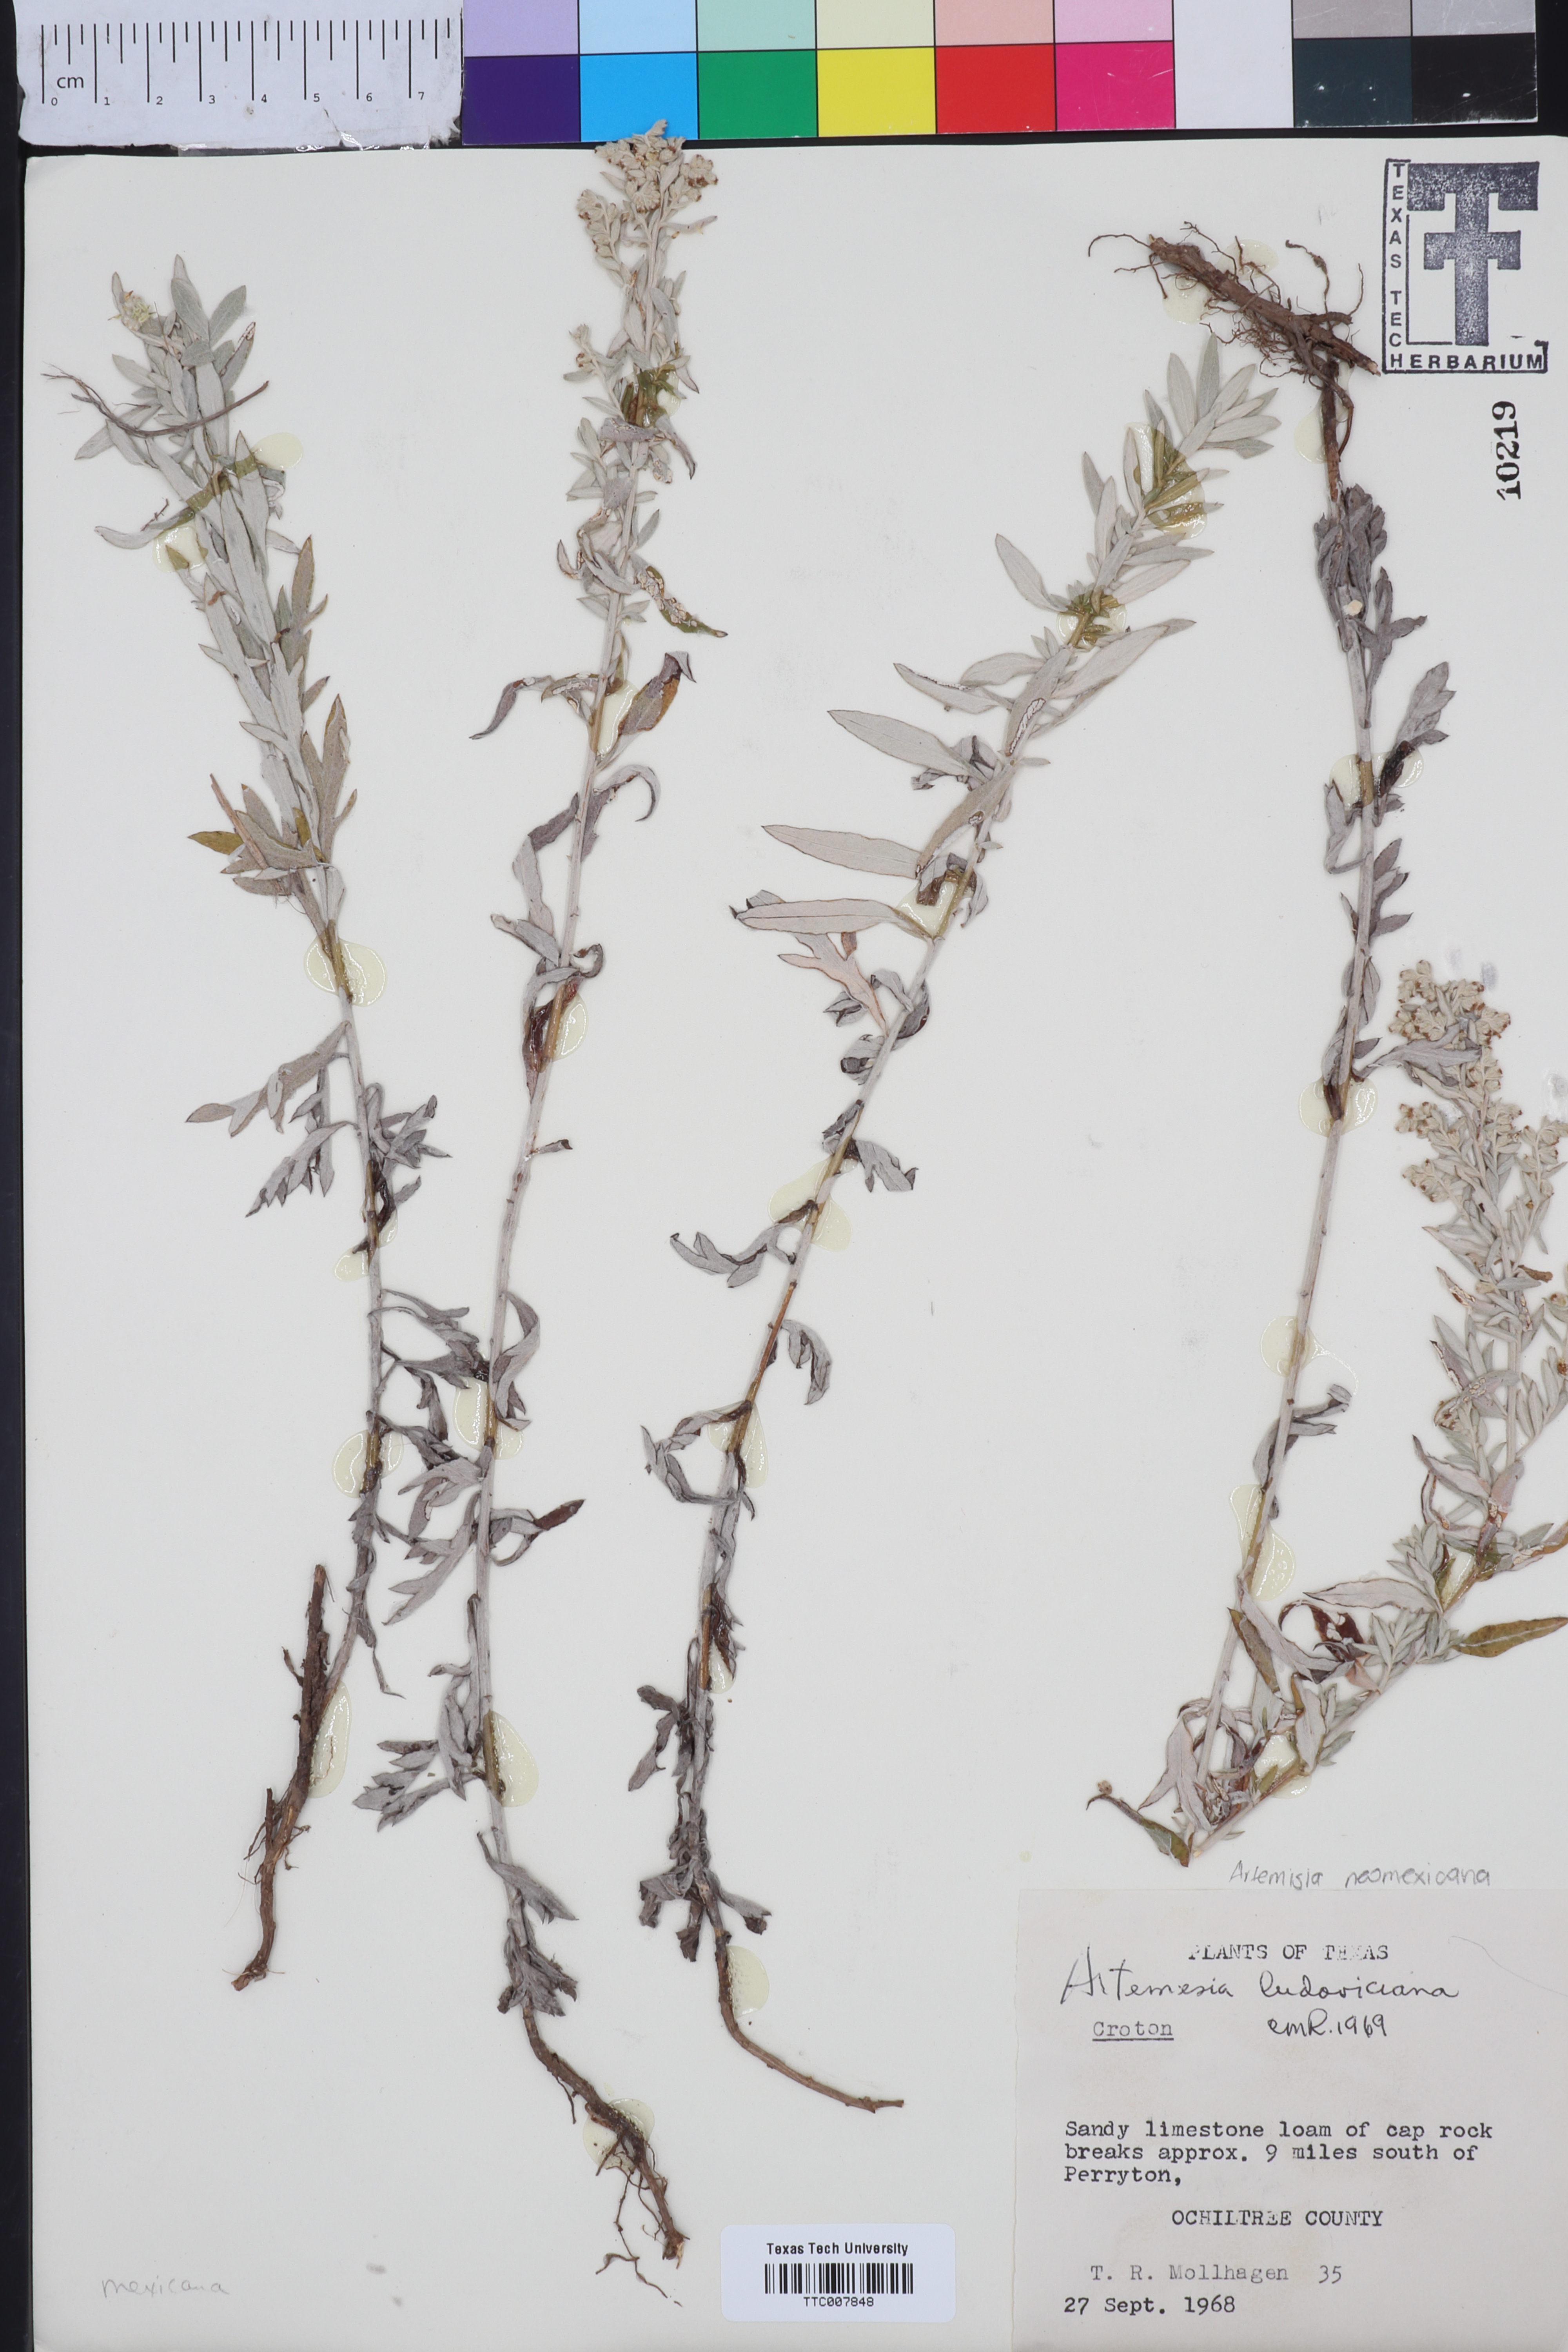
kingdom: Plantae
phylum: Tracheophyta
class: Magnoliopsida
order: Asterales
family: Asteraceae
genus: Artemisia
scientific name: Artemisia ludoviciana
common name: Western mugwort
